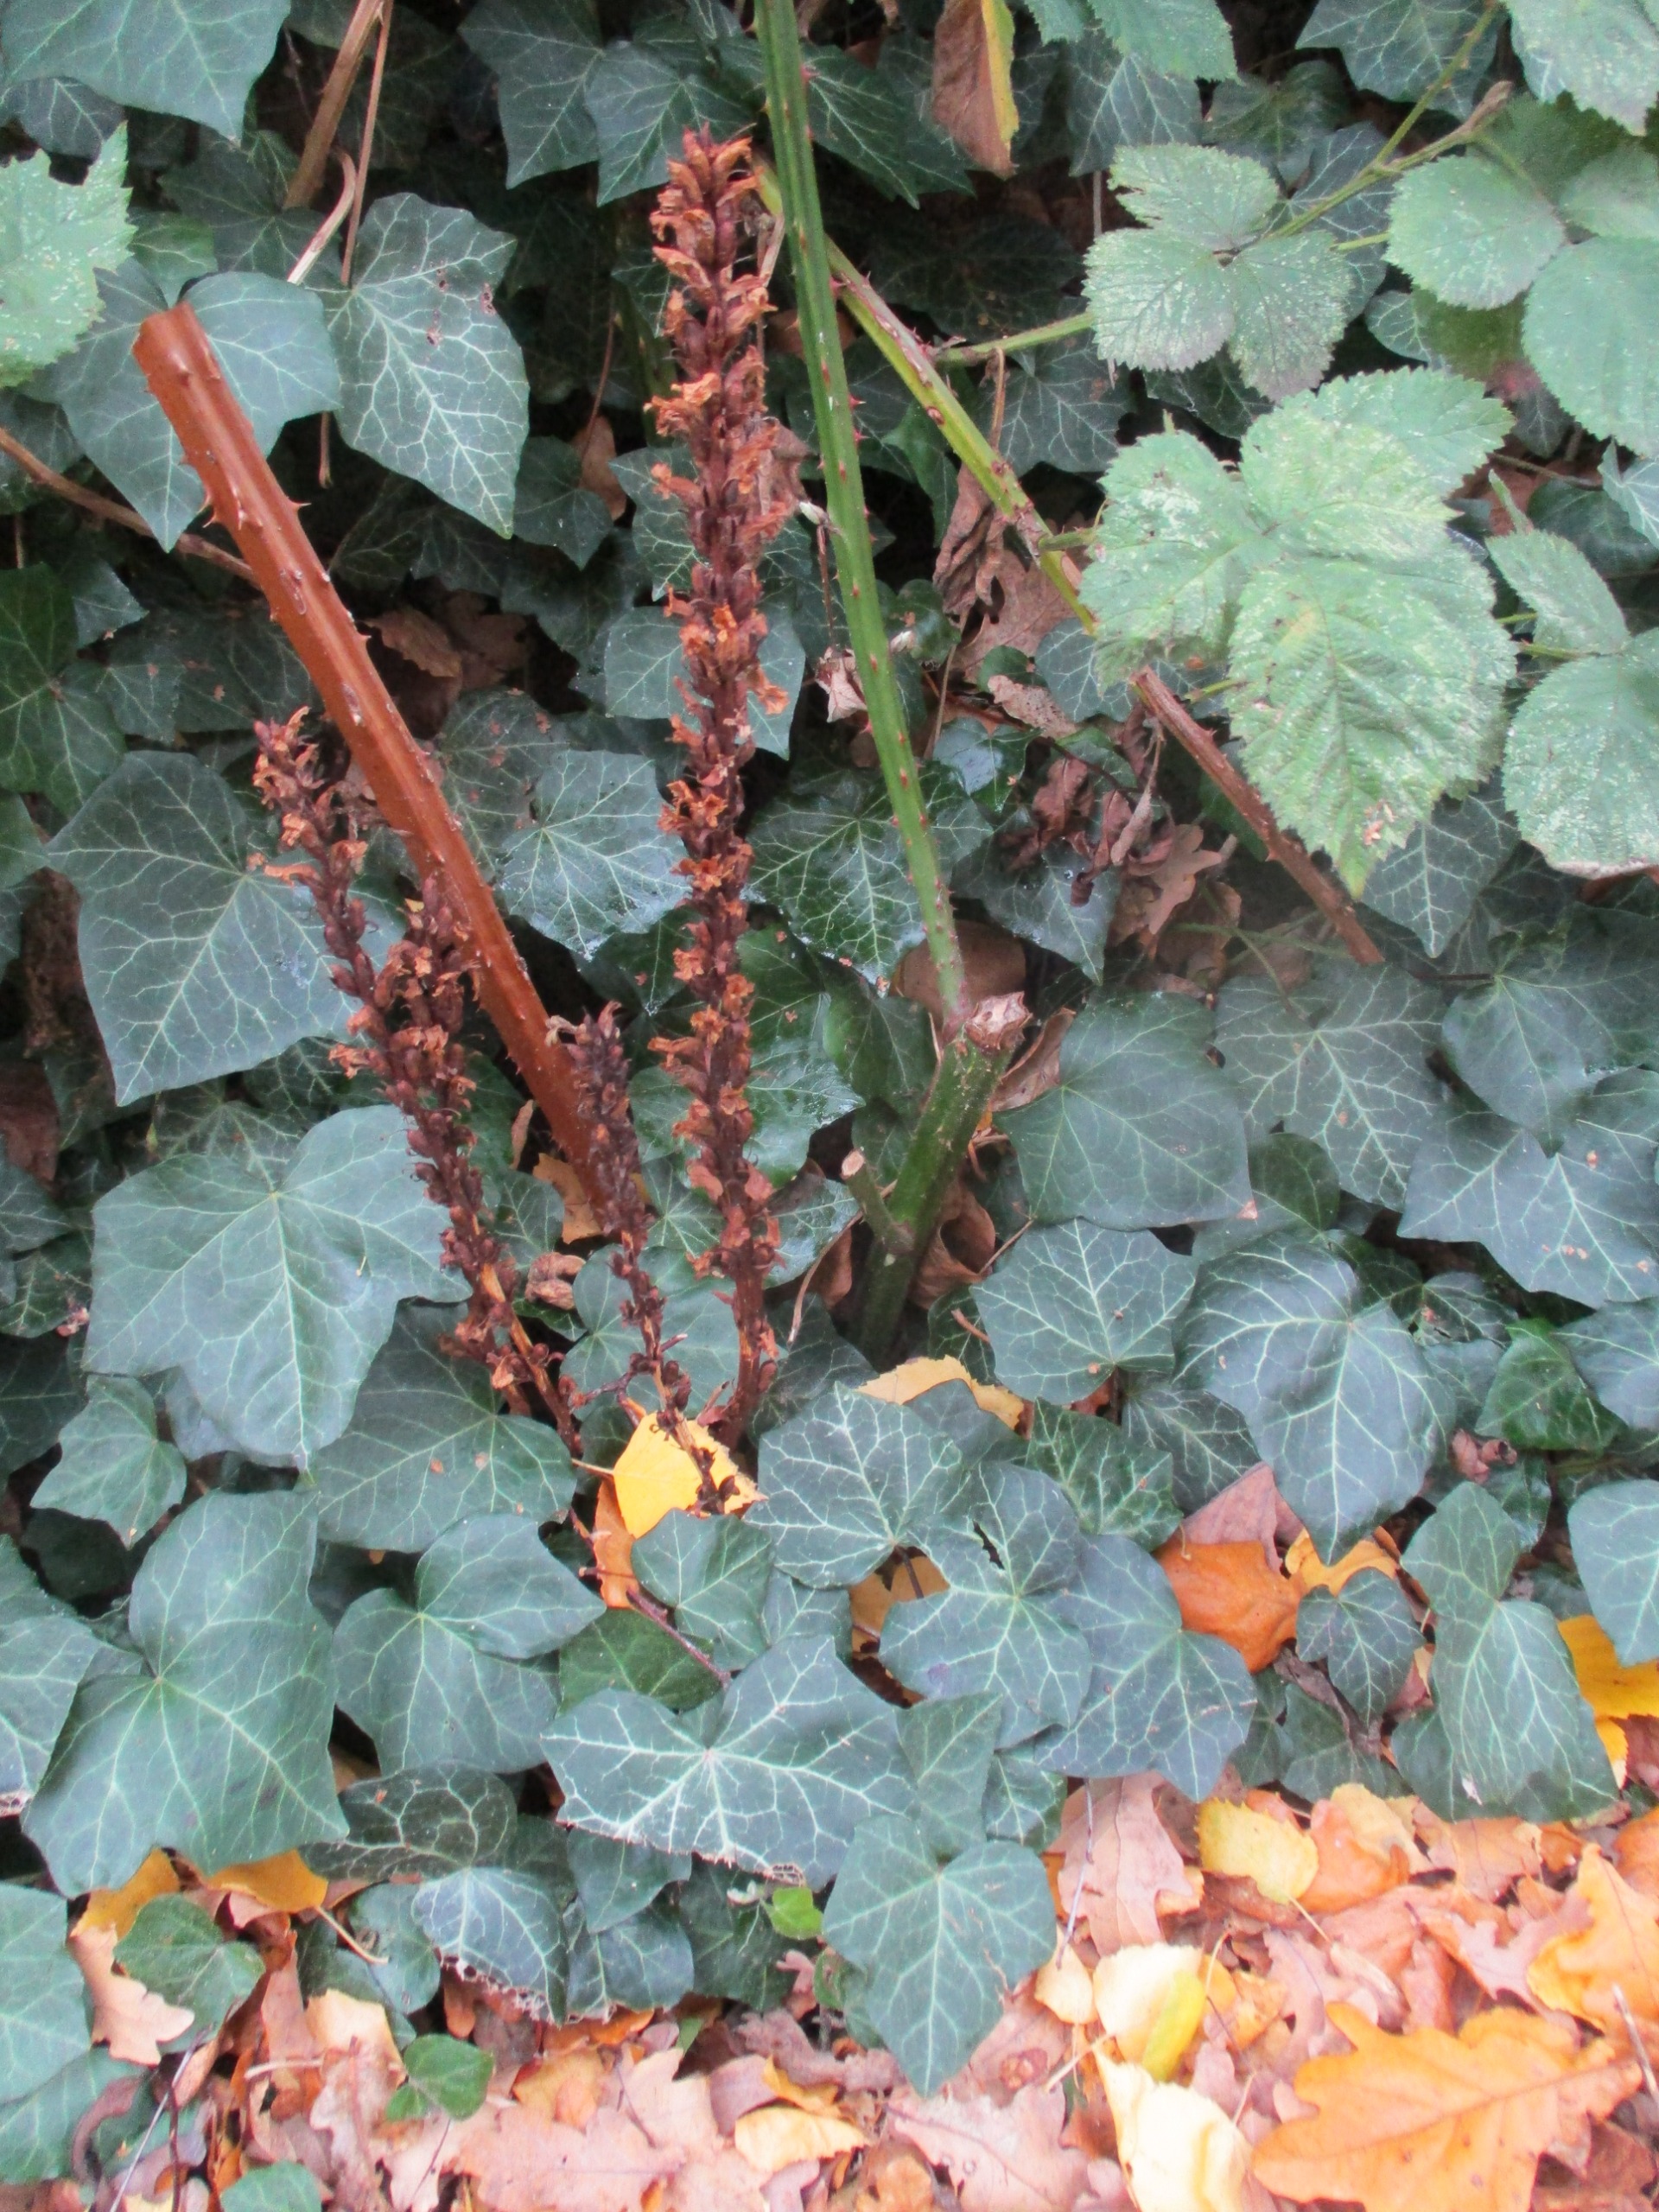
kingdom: Plantae
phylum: Tracheophyta
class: Magnoliopsida
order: Lamiales
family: Orobanchaceae
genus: Orobanche
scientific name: Orobanche hederae
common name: Vedbend-gyvelkvæler
